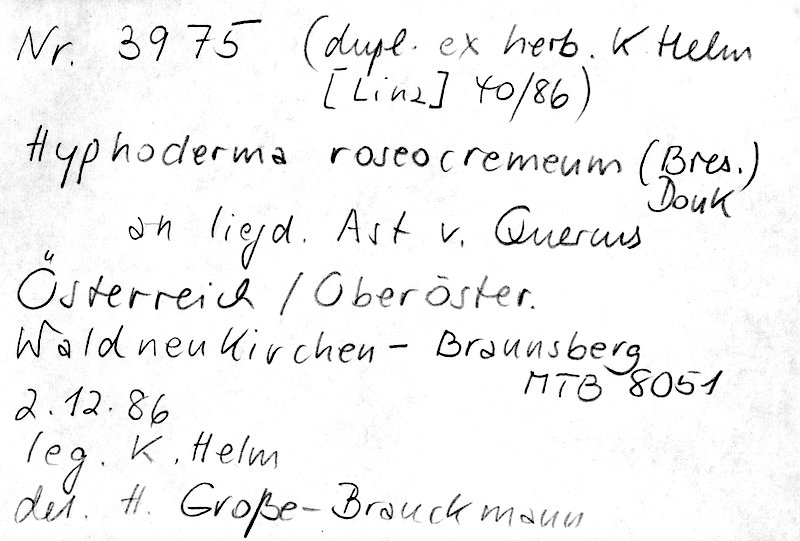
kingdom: Plantae
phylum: Tracheophyta
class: Magnoliopsida
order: Fagales
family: Fagaceae
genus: Quercus
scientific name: Quercus
